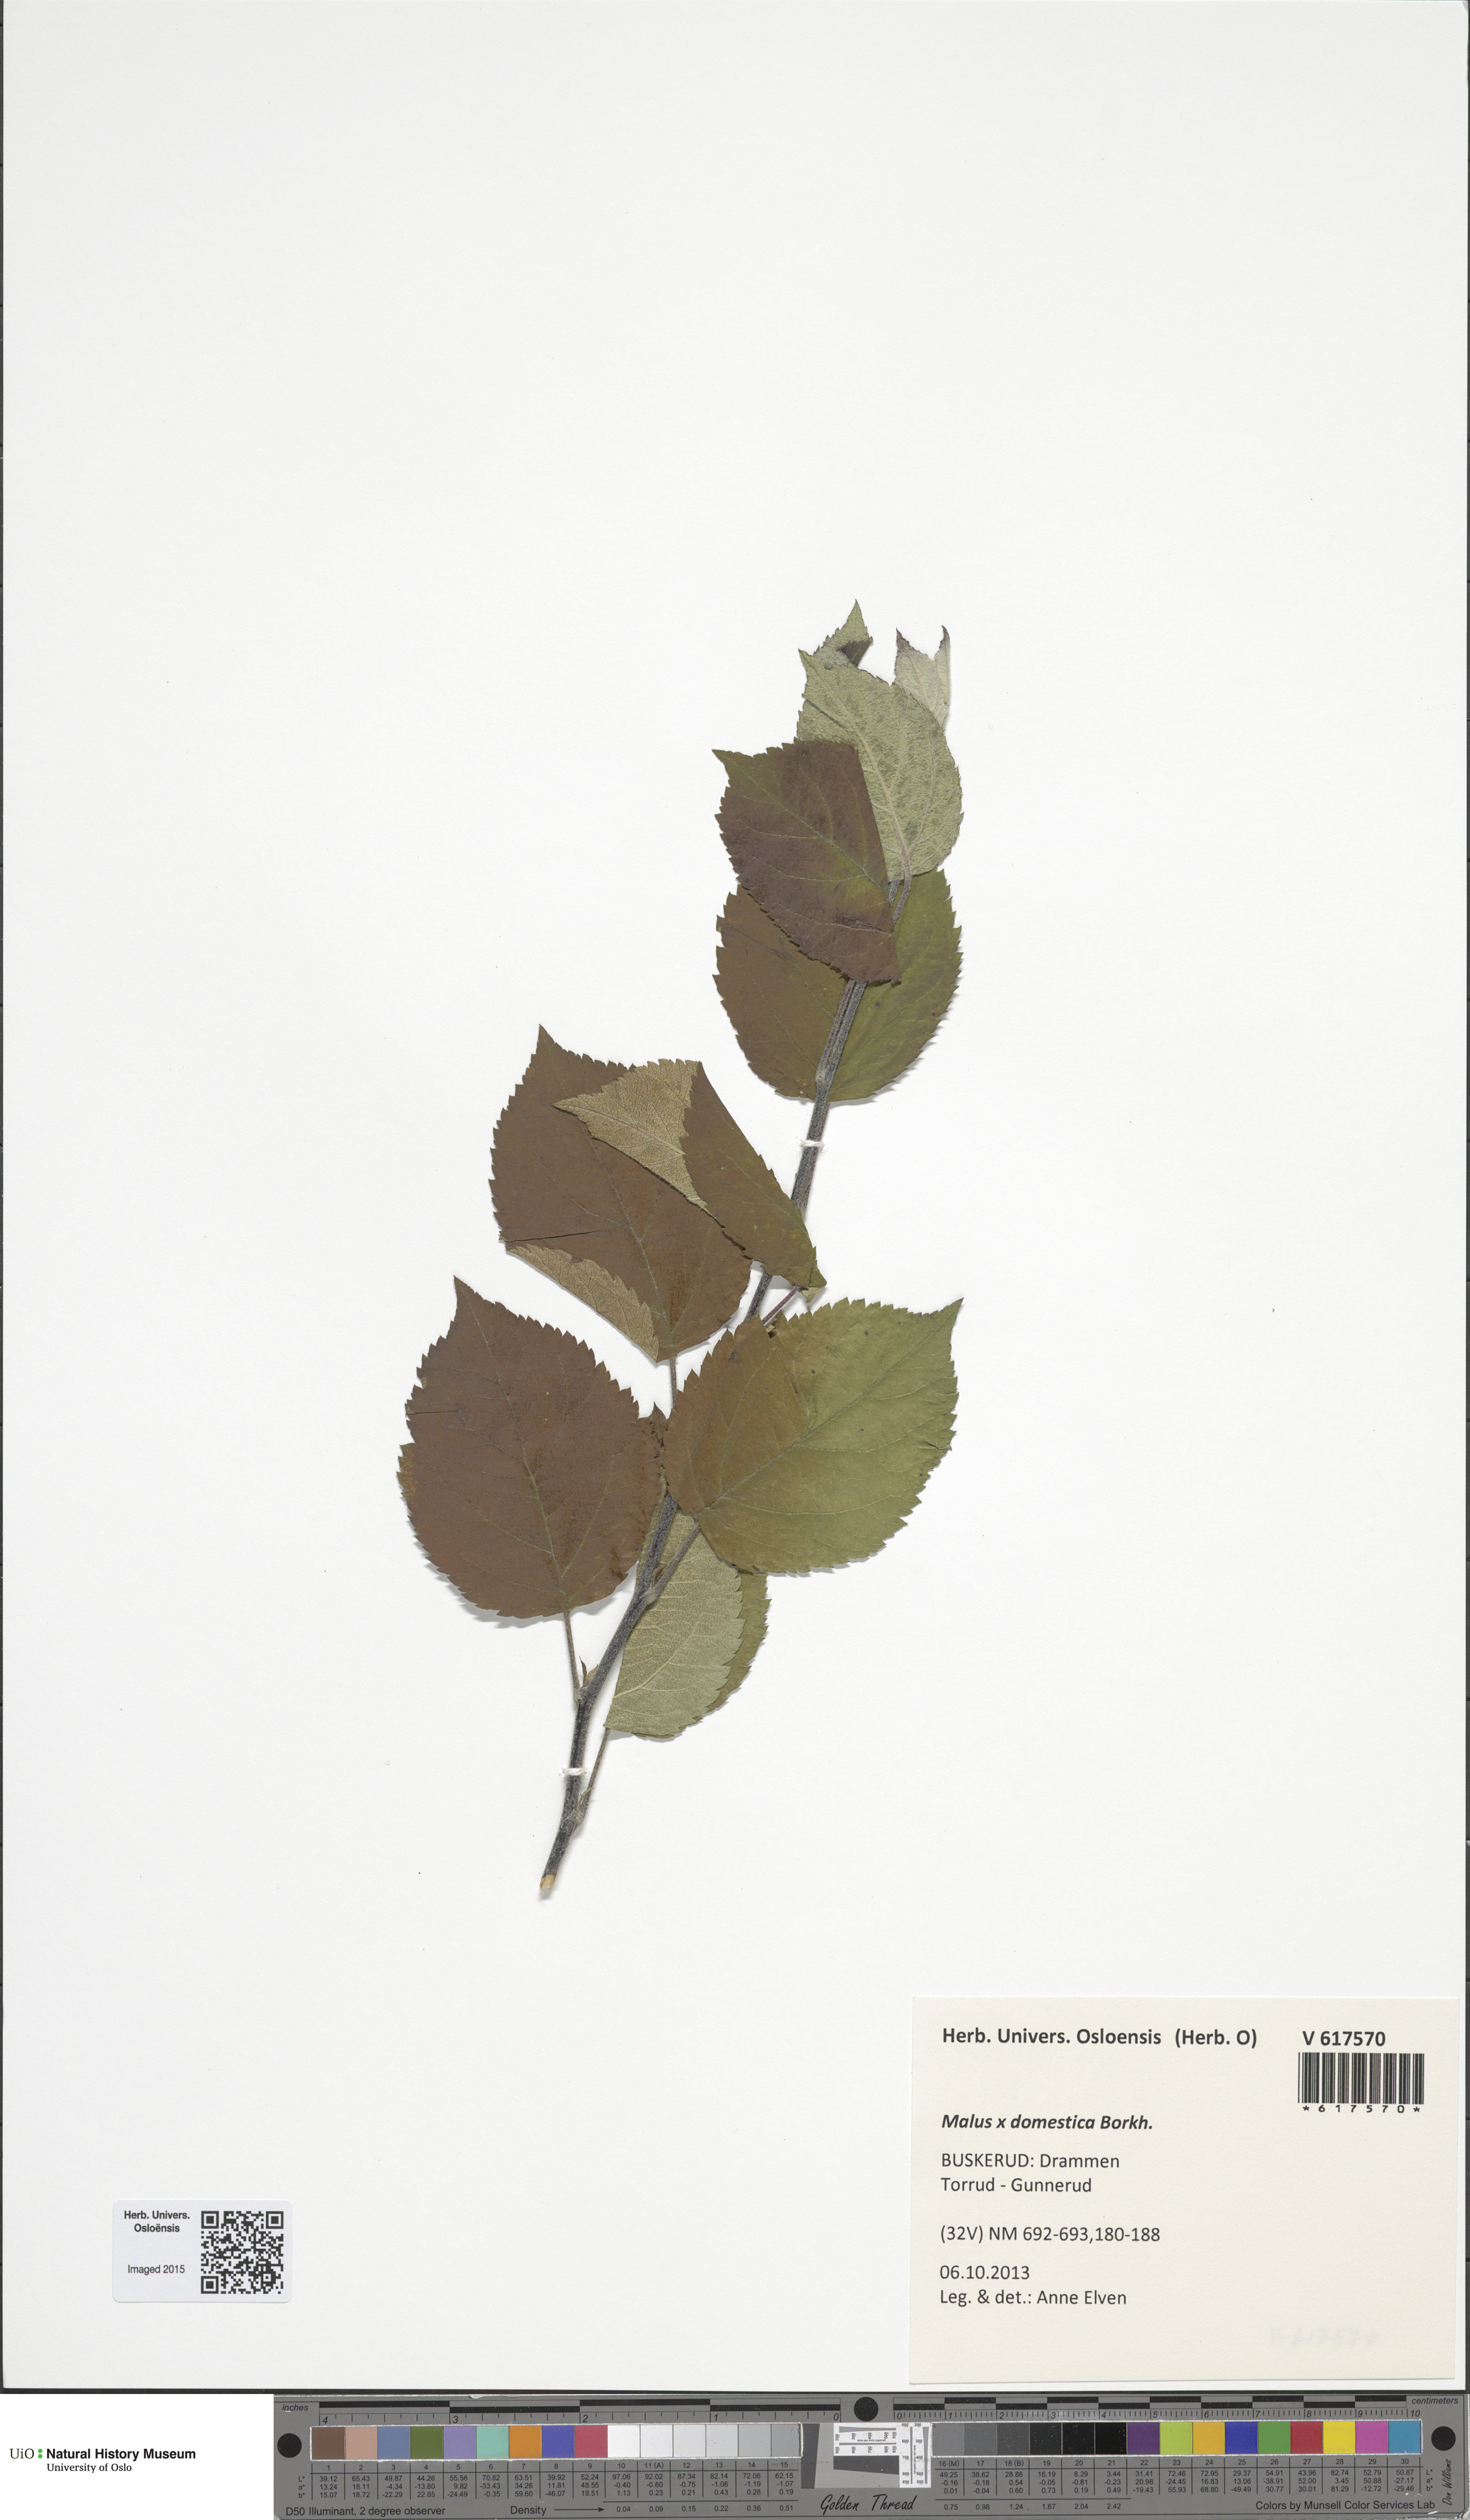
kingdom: Plantae
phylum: Tracheophyta
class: Magnoliopsida
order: Rosales
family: Rosaceae
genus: Malus
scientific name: Malus domestica
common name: Apple
